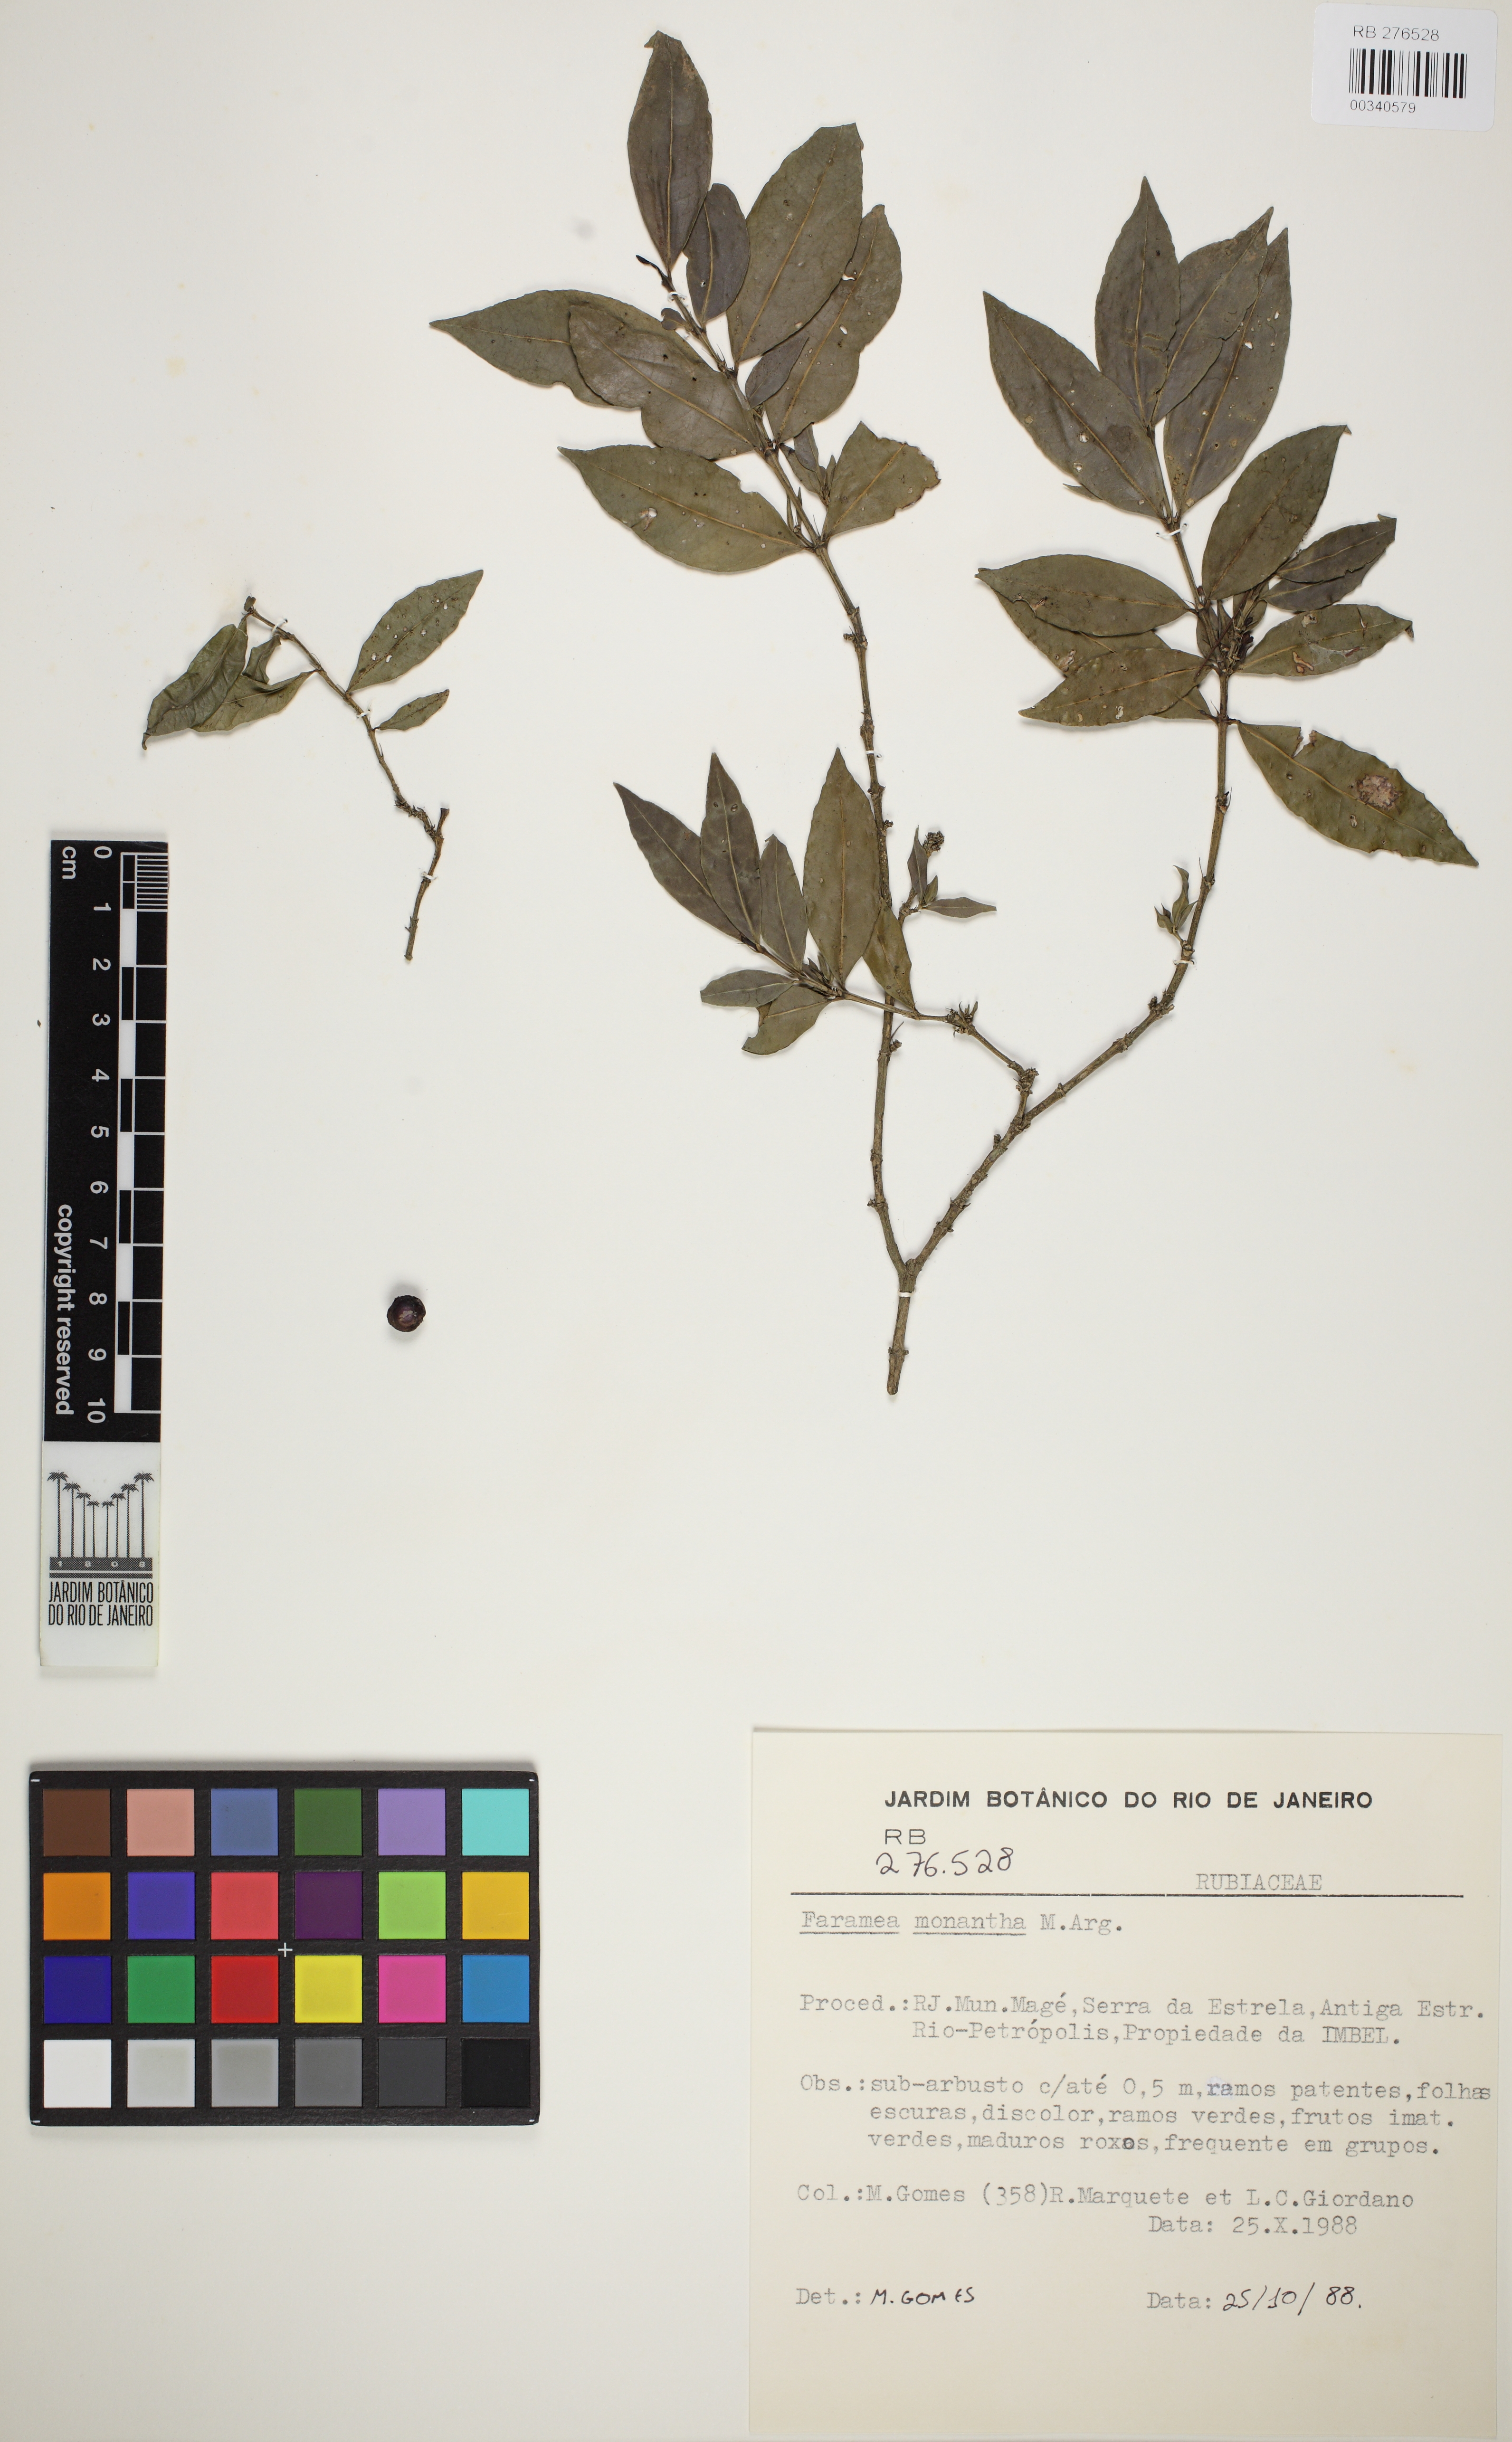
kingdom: Plantae
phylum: Tracheophyta
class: Magnoliopsida
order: Gentianales
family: Rubiaceae
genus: Faramea
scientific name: Faramea monantha
